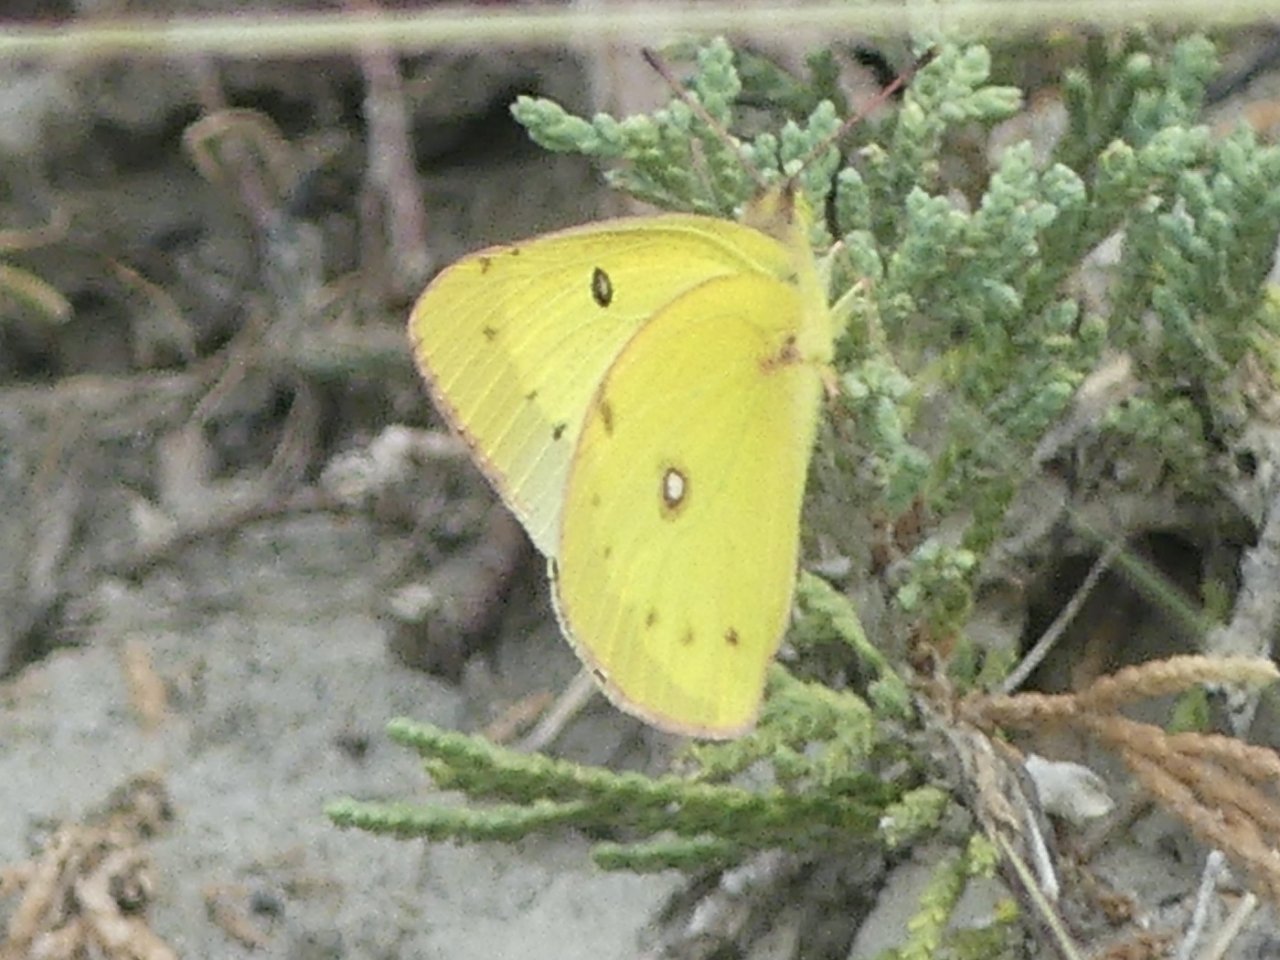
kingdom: Animalia
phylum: Arthropoda
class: Insecta
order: Lepidoptera
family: Pieridae
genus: Colias
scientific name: Colias philodice
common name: Clouded Sulphur
